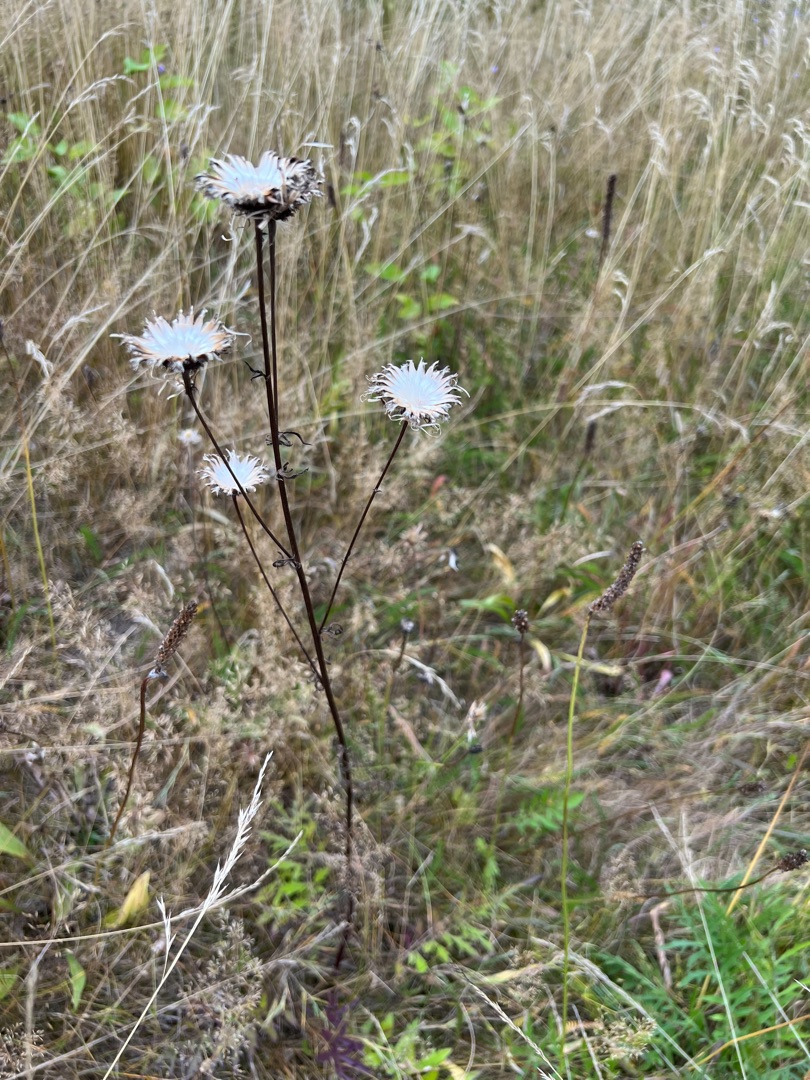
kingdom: Plantae
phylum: Tracheophyta
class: Magnoliopsida
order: Asterales
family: Asteraceae
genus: Centaurea
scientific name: Centaurea scabiosa
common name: Stor knopurt
